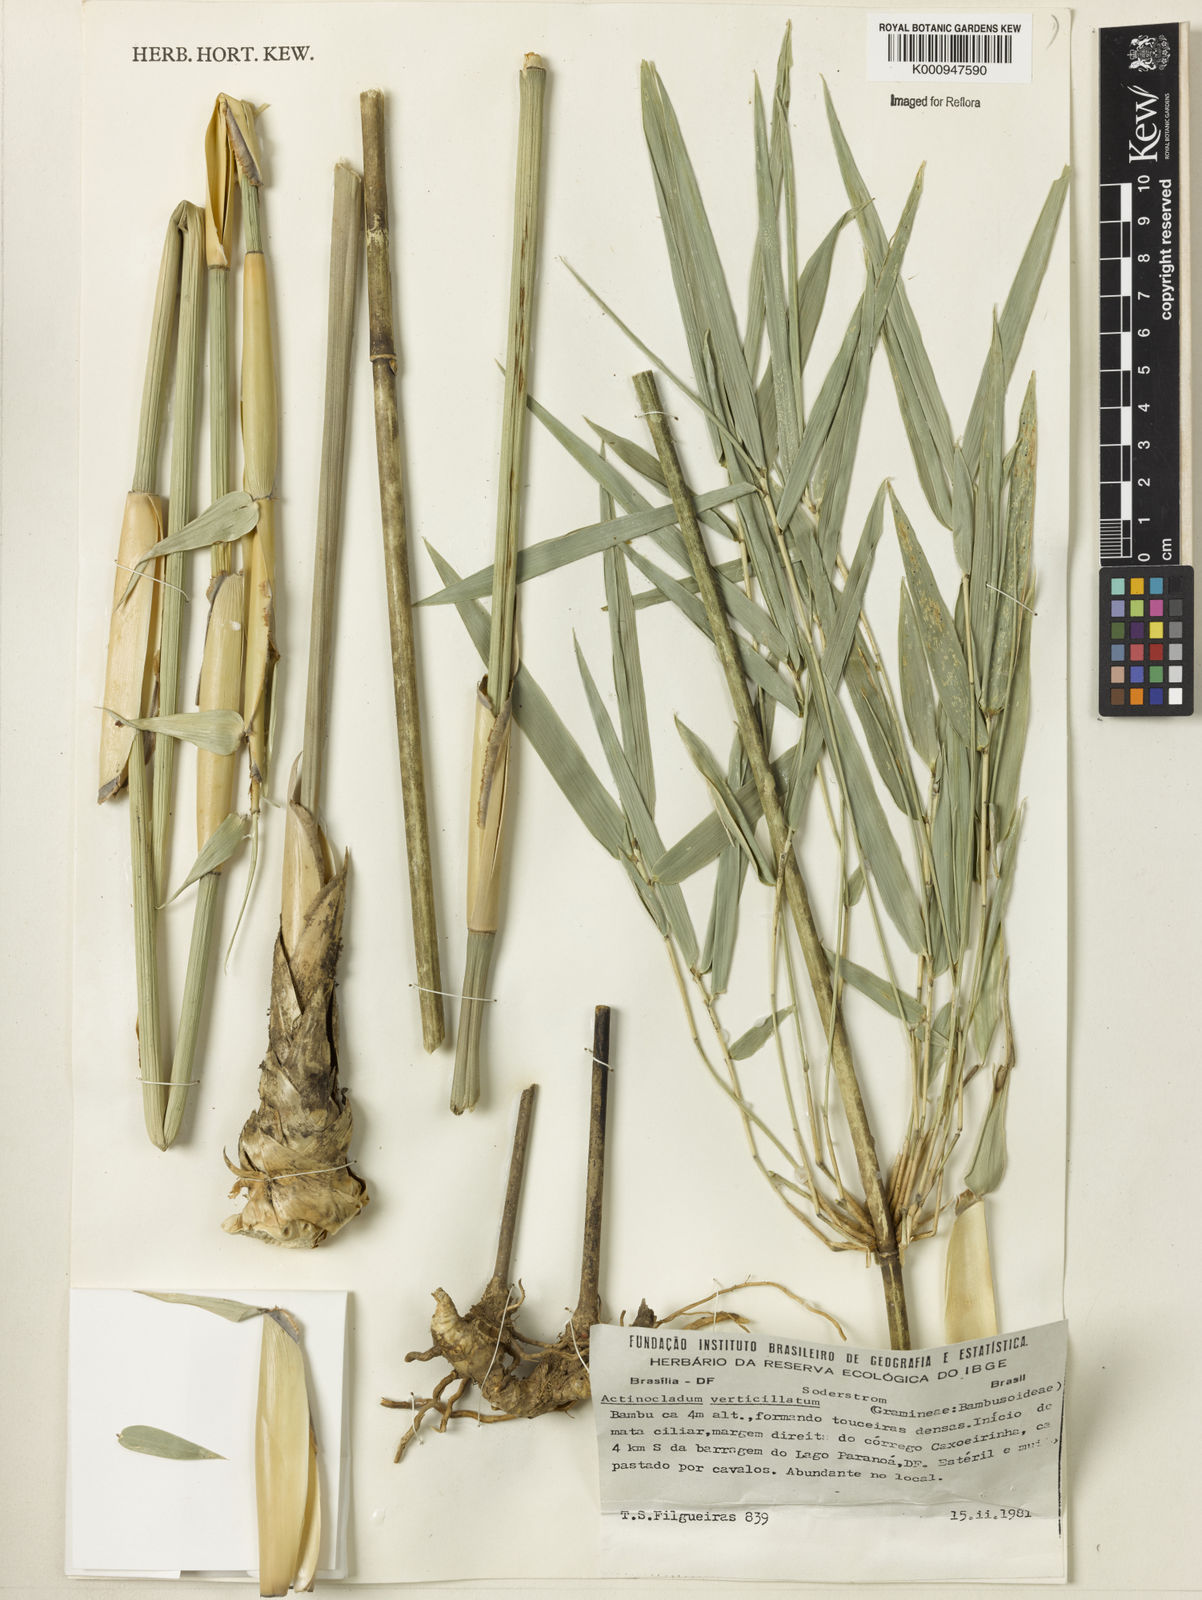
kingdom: Plantae
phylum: Tracheophyta
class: Liliopsida
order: Poales
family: Poaceae
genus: Actinocladum
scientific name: Actinocladum verticillatum
